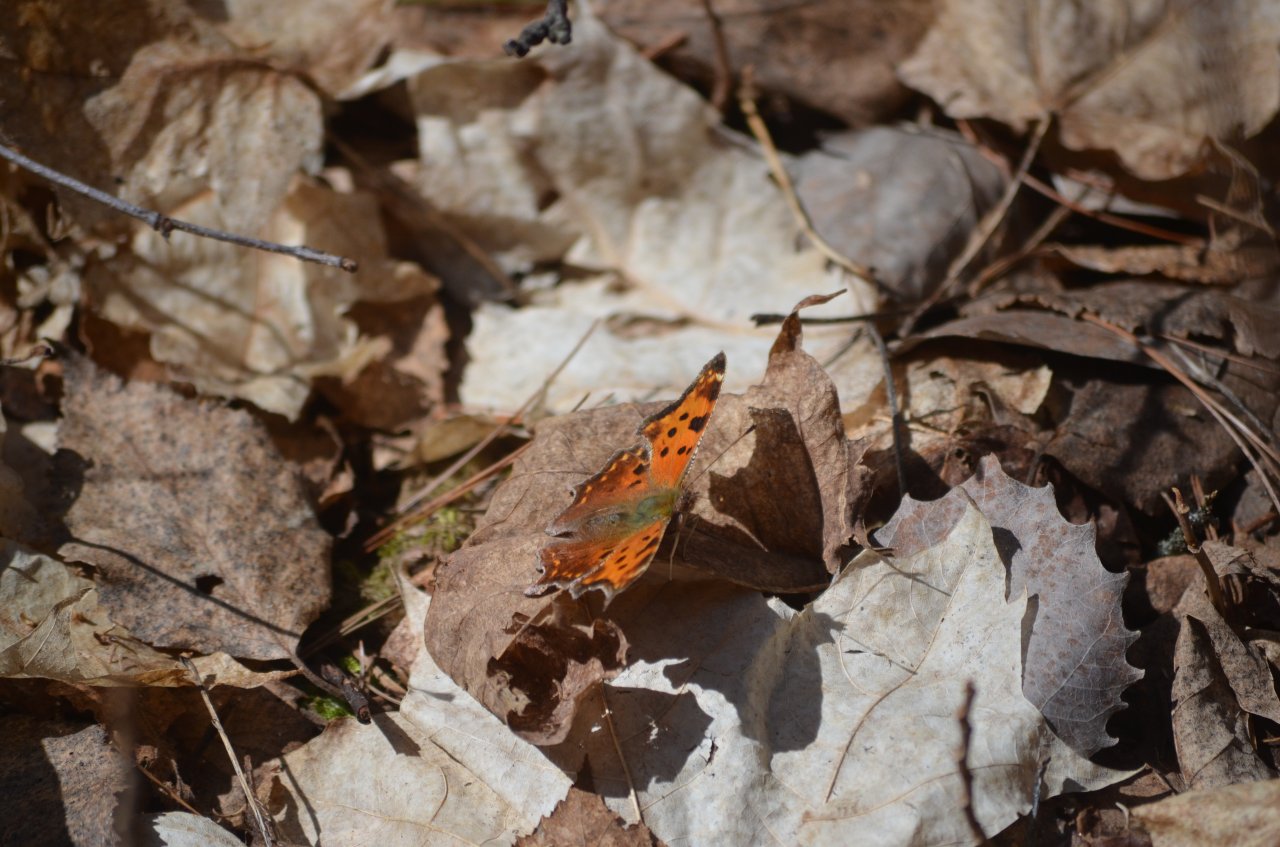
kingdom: Animalia
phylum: Arthropoda
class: Insecta
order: Lepidoptera
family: Nymphalidae
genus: Polygonia
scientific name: Polygonia comma
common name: Eastern Comma
